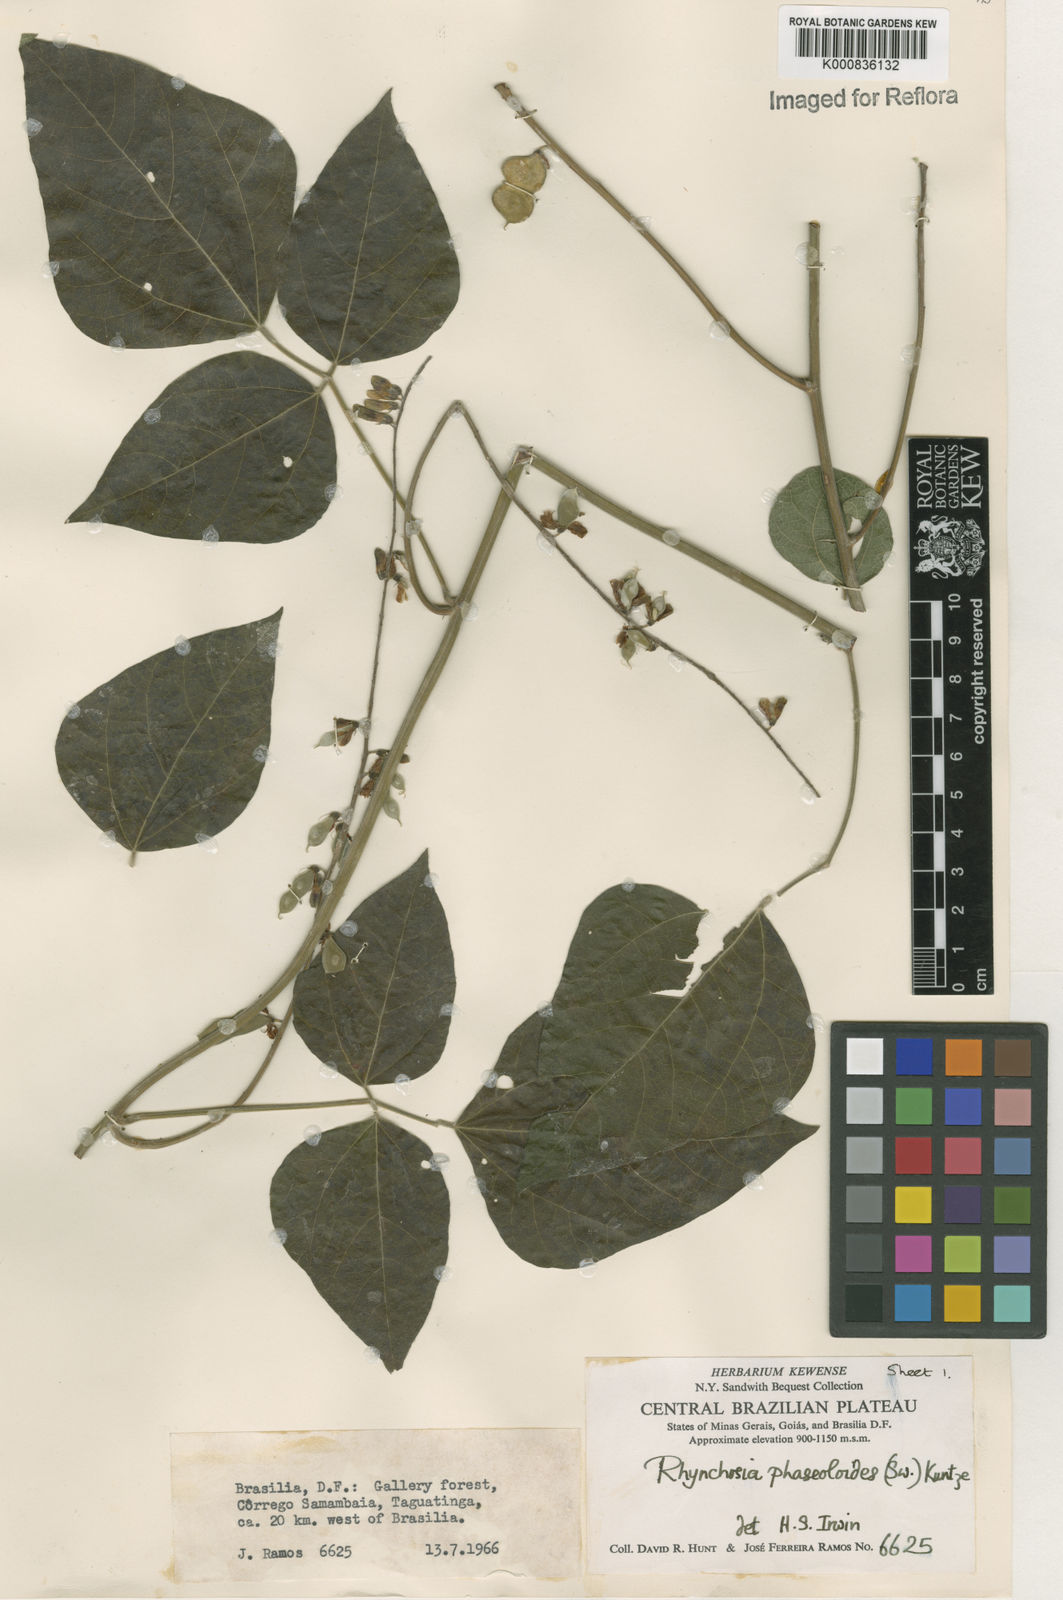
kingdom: Plantae
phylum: Tracheophyta
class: Magnoliopsida
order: Fabales
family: Fabaceae
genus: Rhynchosia
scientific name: Rhynchosia phaseoloides
